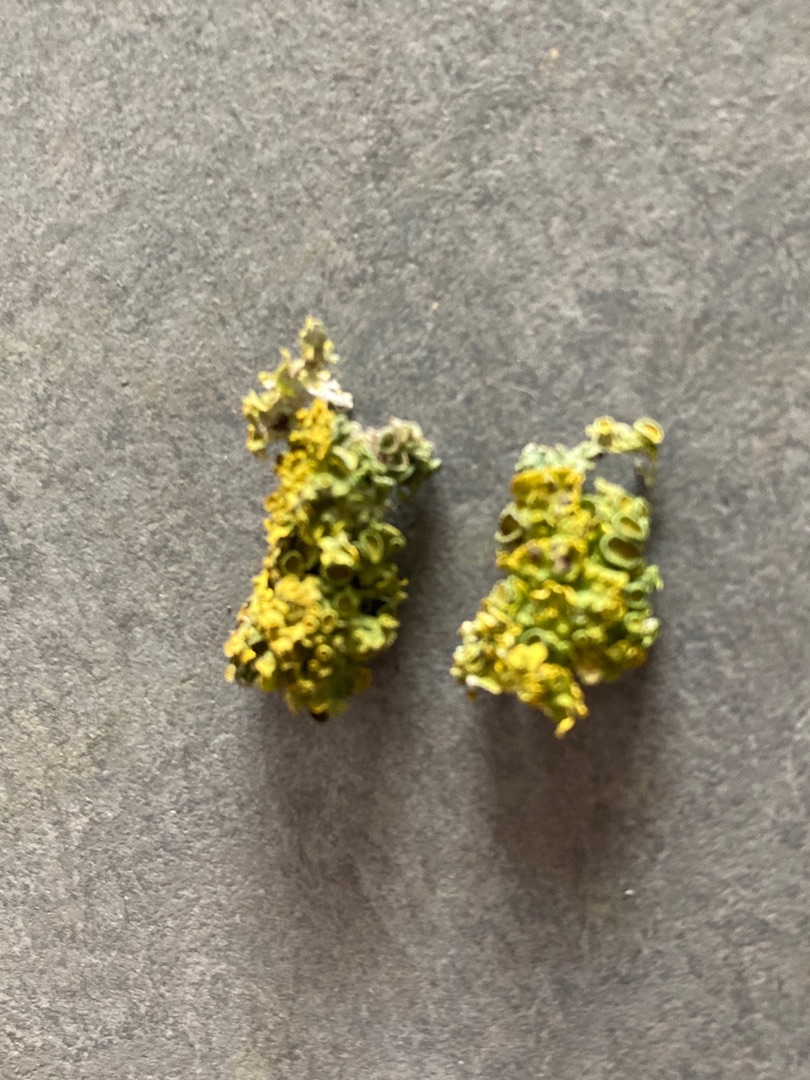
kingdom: Fungi
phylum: Ascomycota
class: Lecanoromycetes
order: Teloschistales
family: Teloschistaceae
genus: Xanthoria
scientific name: Xanthoria parietina
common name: Almindelig væggelav
